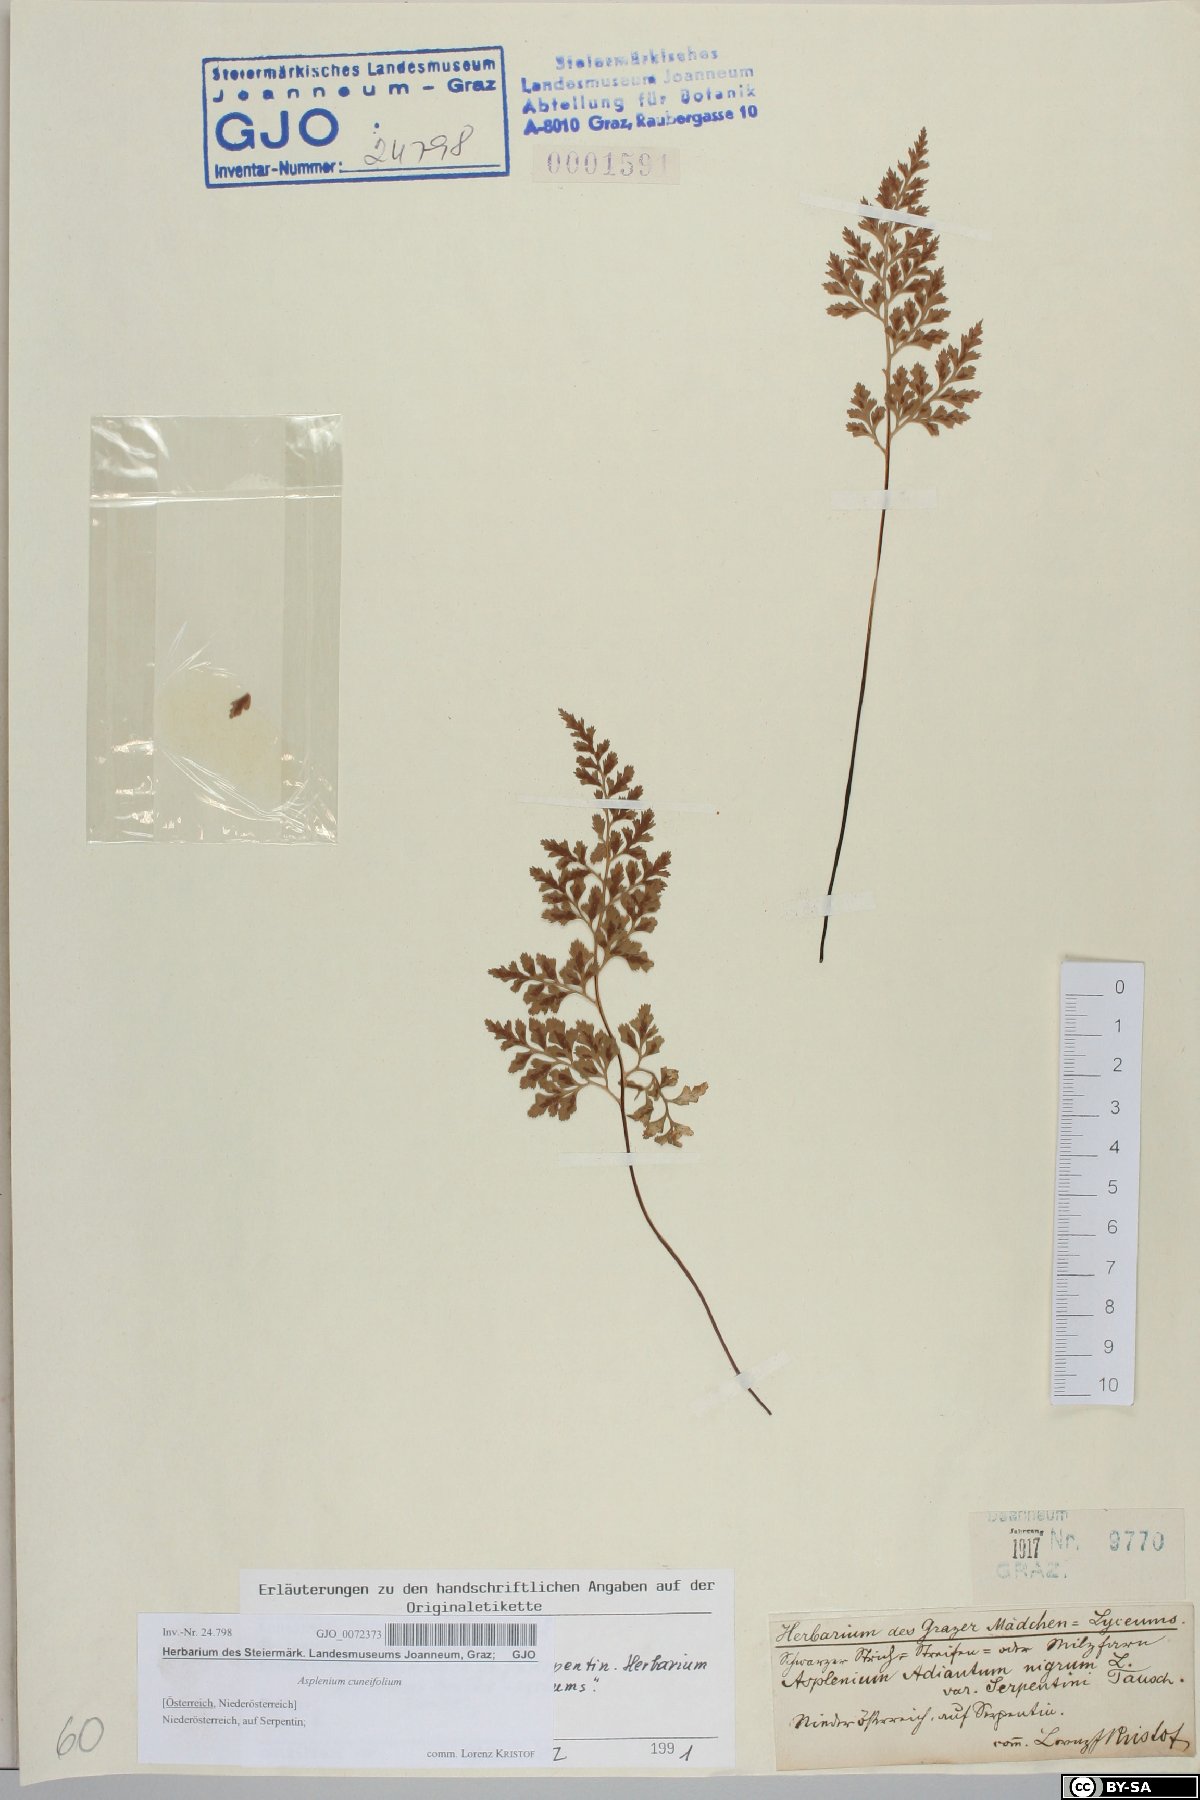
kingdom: Plantae
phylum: Tracheophyta
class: Polypodiopsida
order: Polypodiales
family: Aspleniaceae
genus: Asplenium
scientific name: Asplenium cuneifolium
